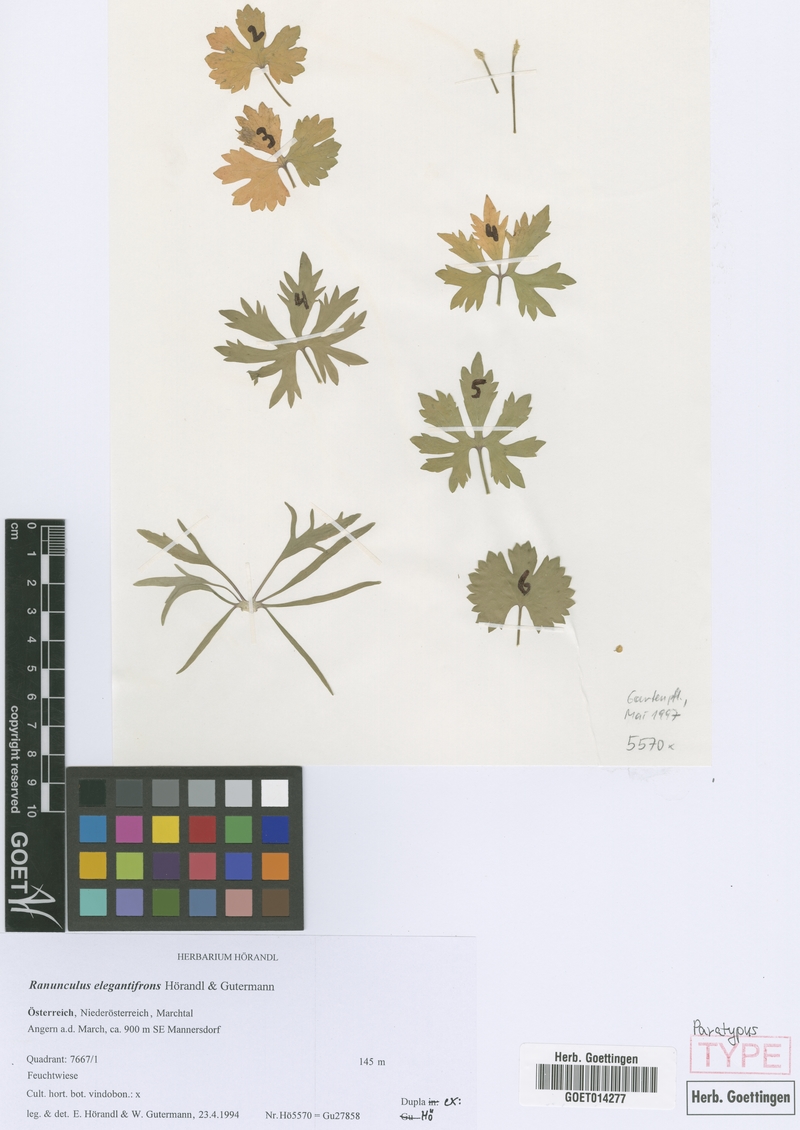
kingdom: Plantae
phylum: Tracheophyta
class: Magnoliopsida
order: Ranunculales
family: Ranunculaceae
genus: Ranunculus
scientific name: Ranunculus elegantifrons
